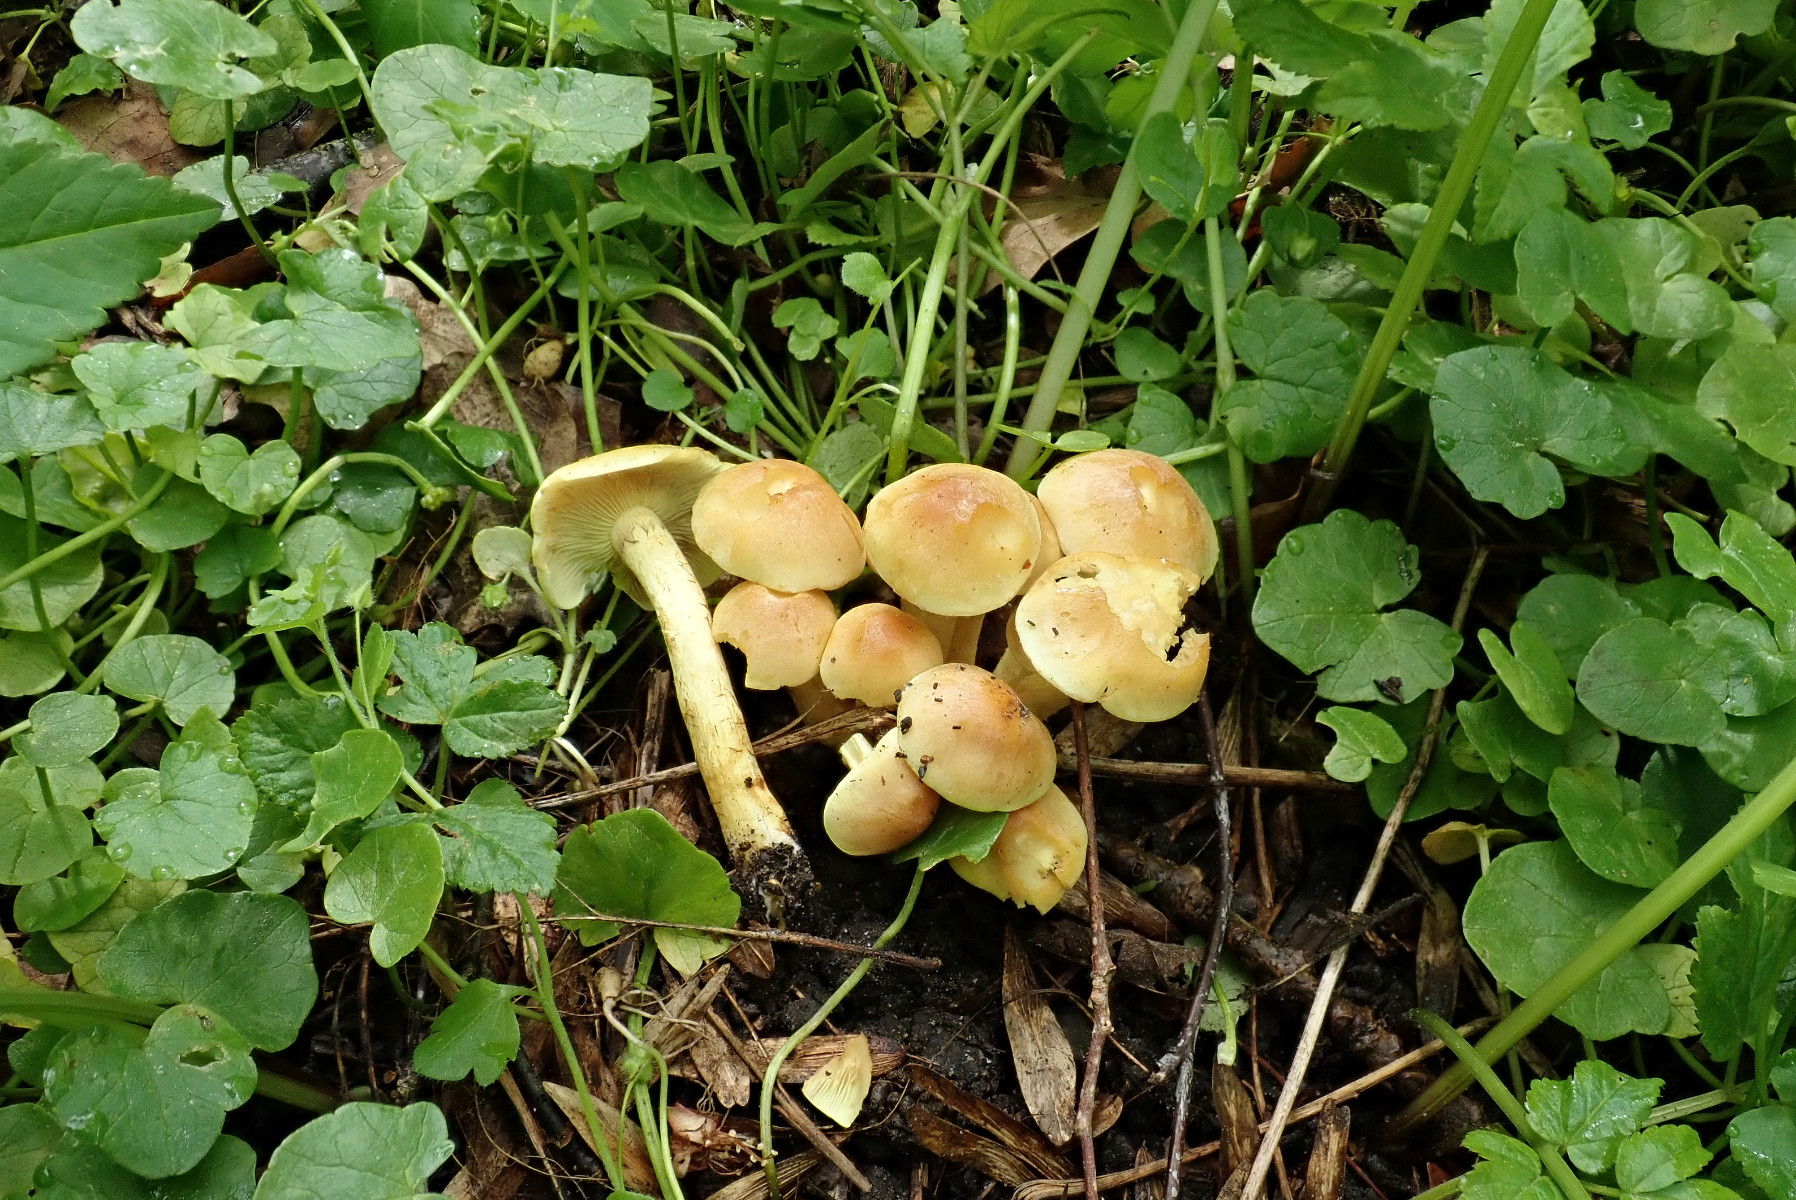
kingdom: Fungi
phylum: Basidiomycota
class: Agaricomycetes
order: Agaricales
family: Strophariaceae
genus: Hypholoma
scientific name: Hypholoma fasciculare
